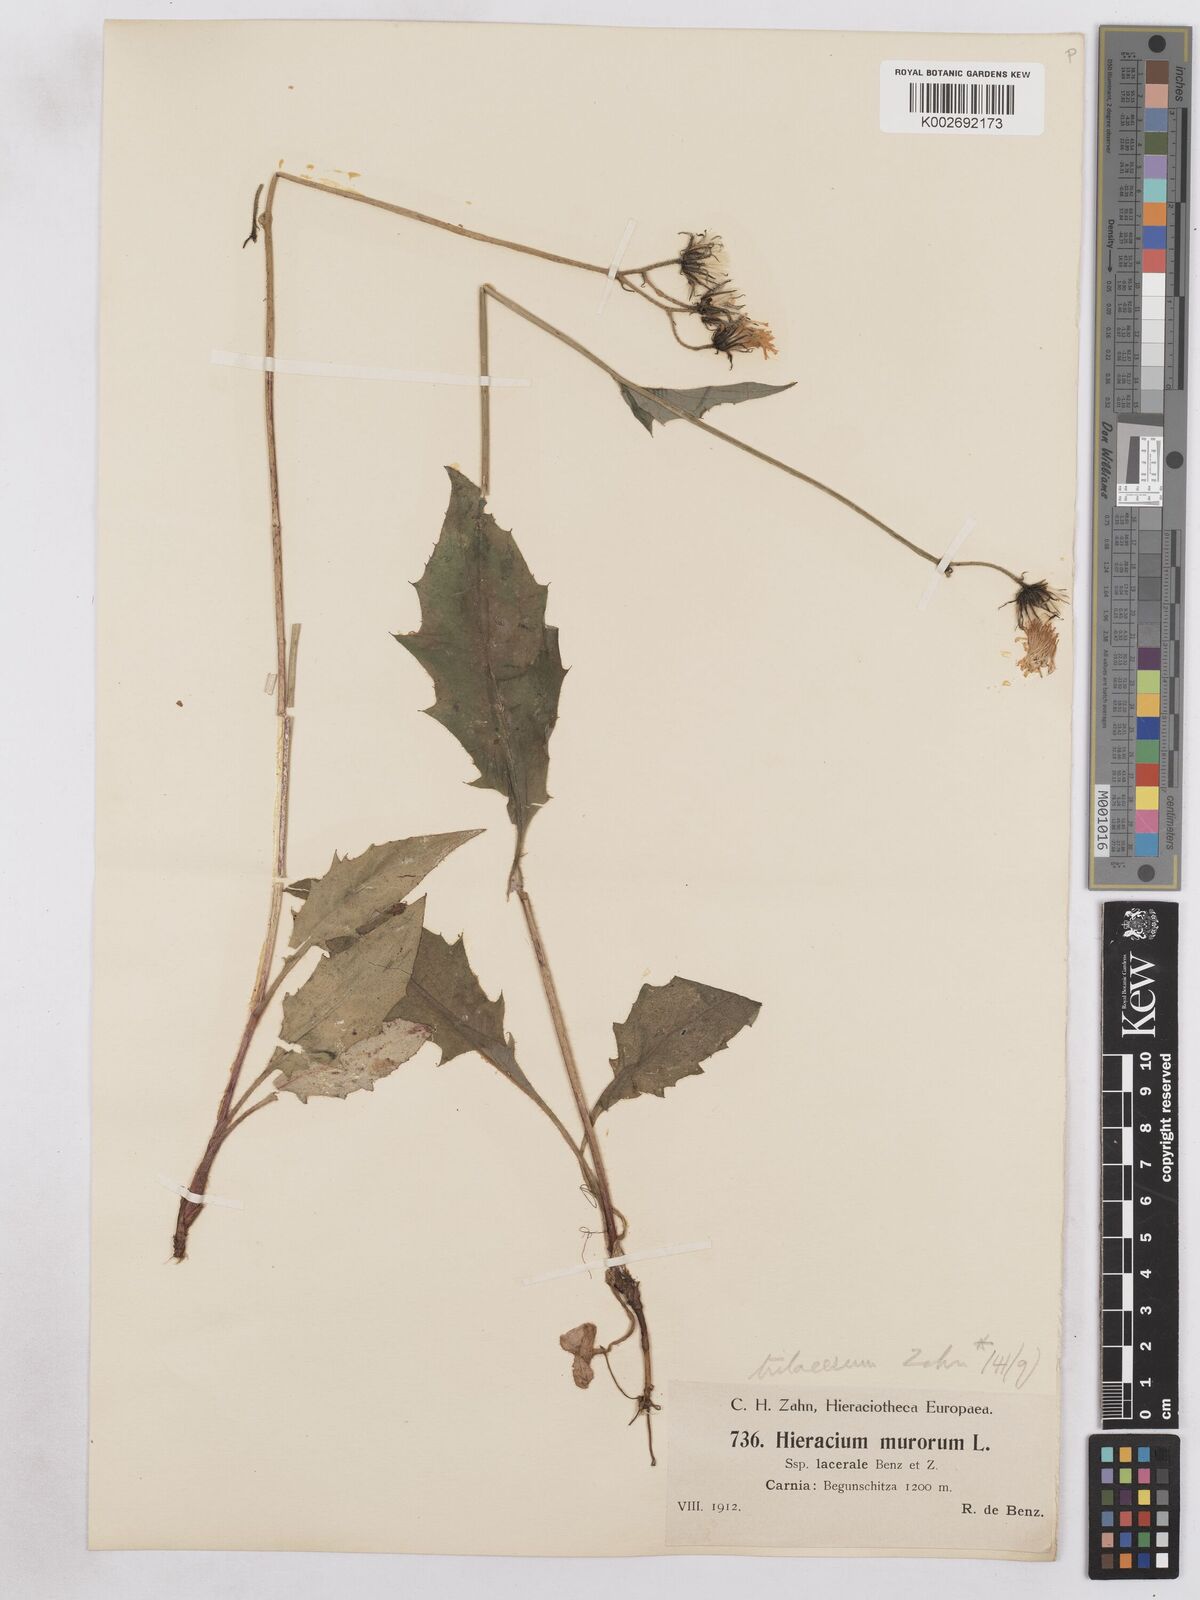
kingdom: Plantae
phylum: Tracheophyta
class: Magnoliopsida
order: Asterales
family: Asteraceae
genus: Hieracium
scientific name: Hieracium diaphanoides
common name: Fine-bracted hawkweed
